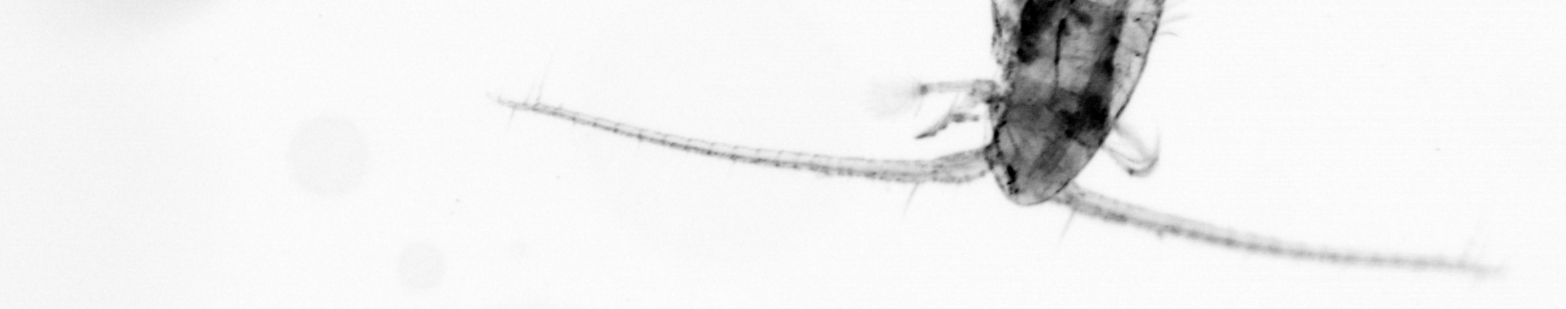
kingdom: Animalia
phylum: Arthropoda
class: Copepoda
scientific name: Copepoda
